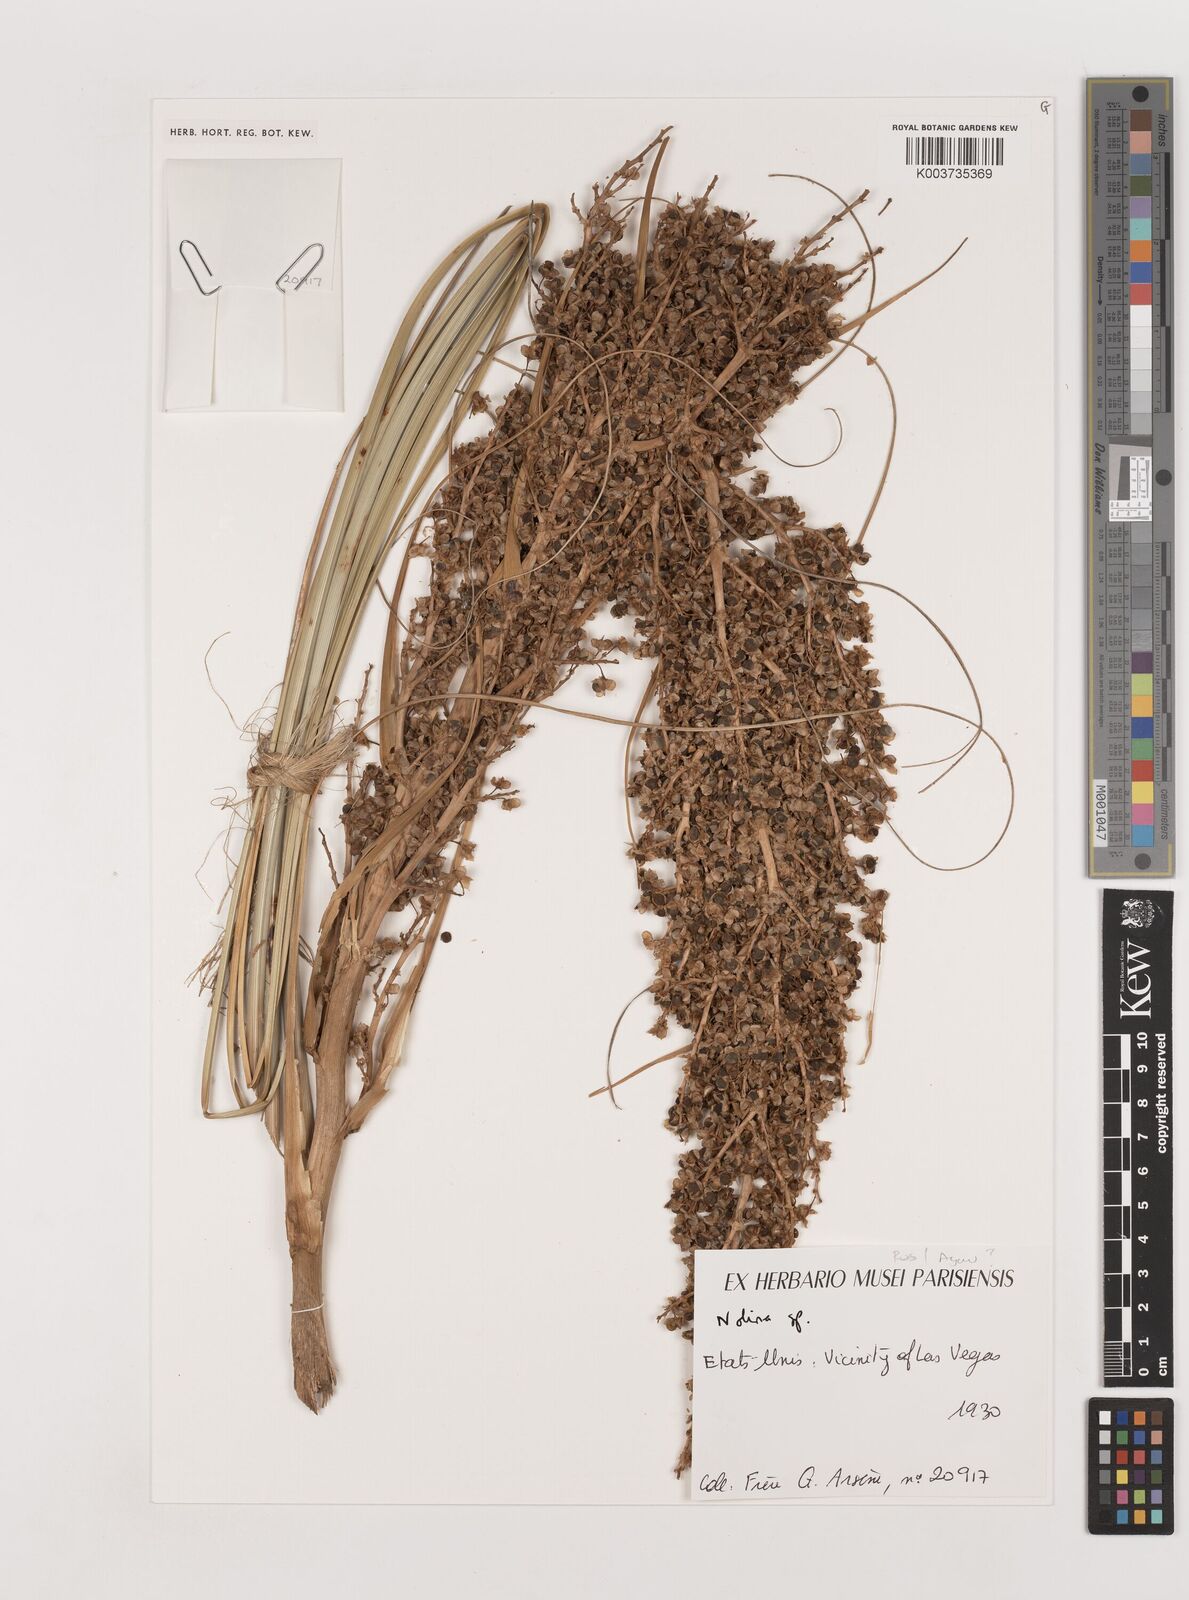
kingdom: Plantae
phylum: Tracheophyta
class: Liliopsida
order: Asparagales
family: Asparagaceae
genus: Nolina
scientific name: Nolina
